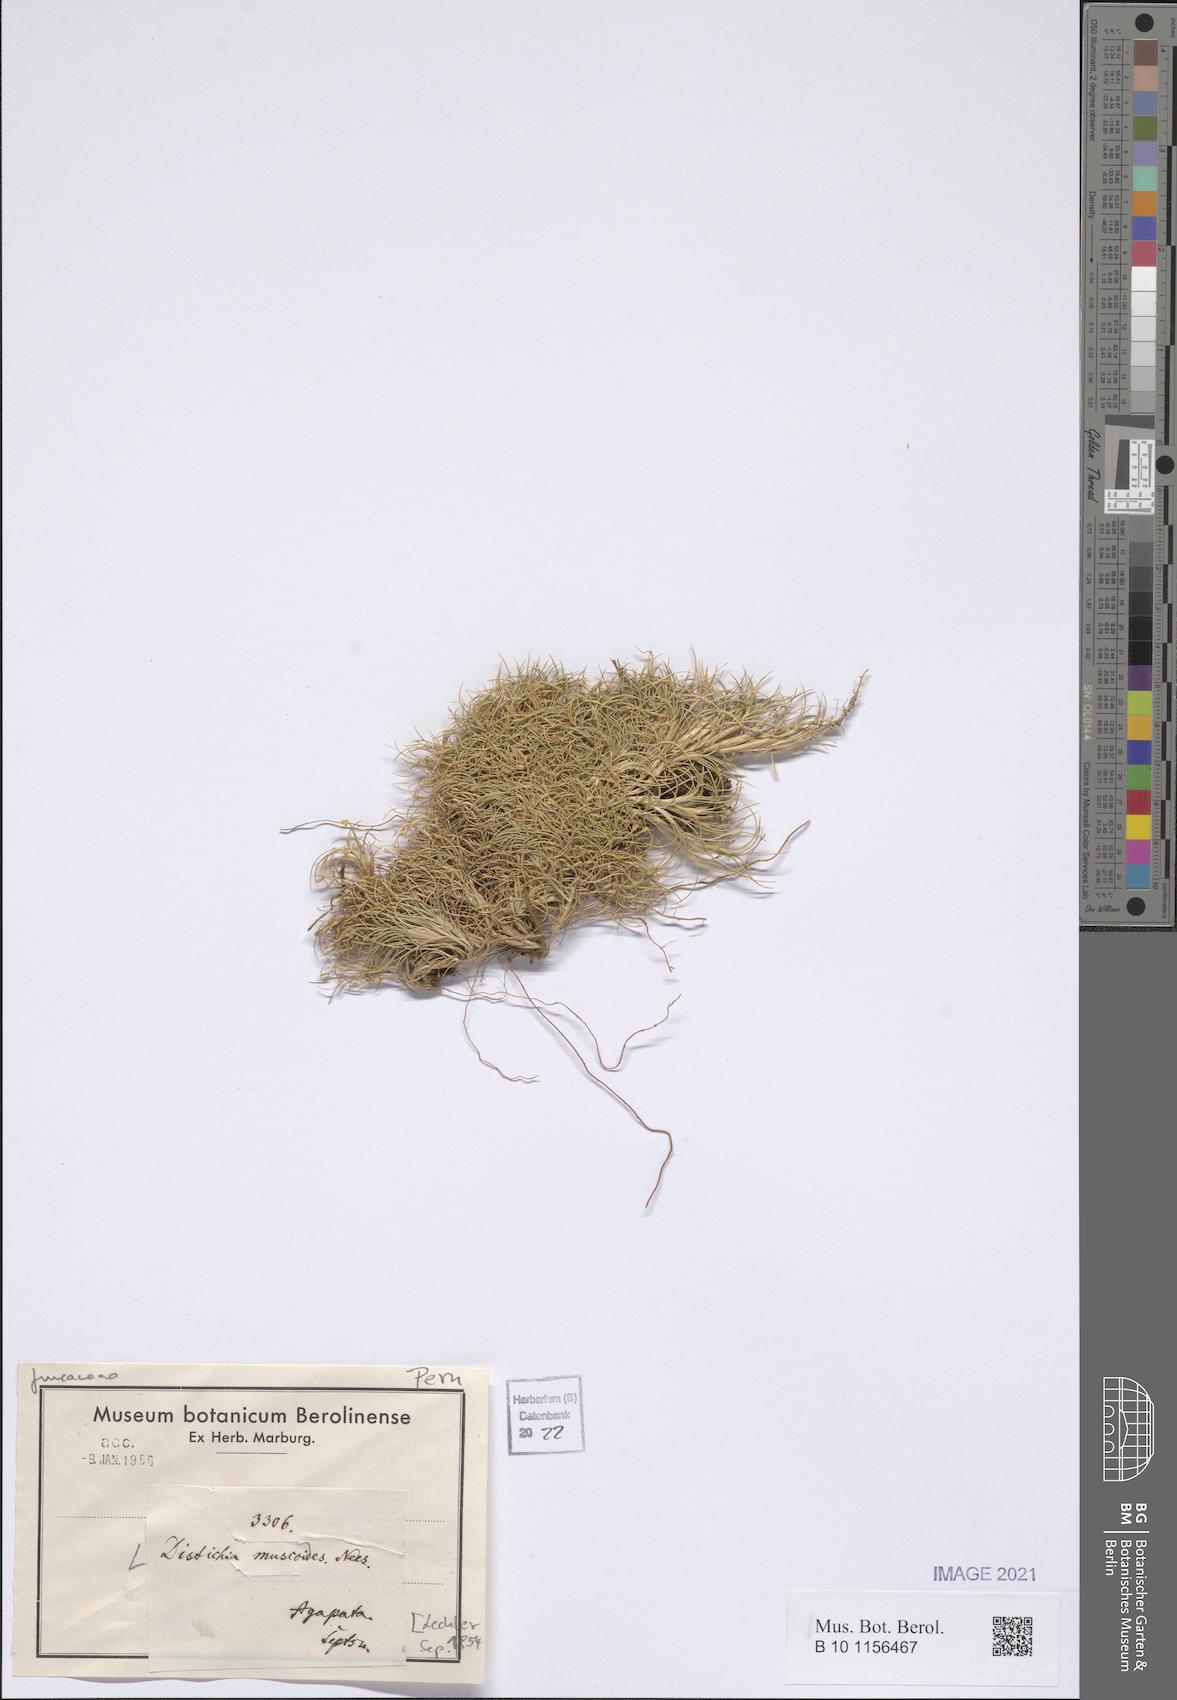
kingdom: Plantae
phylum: Tracheophyta
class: Liliopsida
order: Poales
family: Juncaceae
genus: Distichia
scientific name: Distichia muscoides
